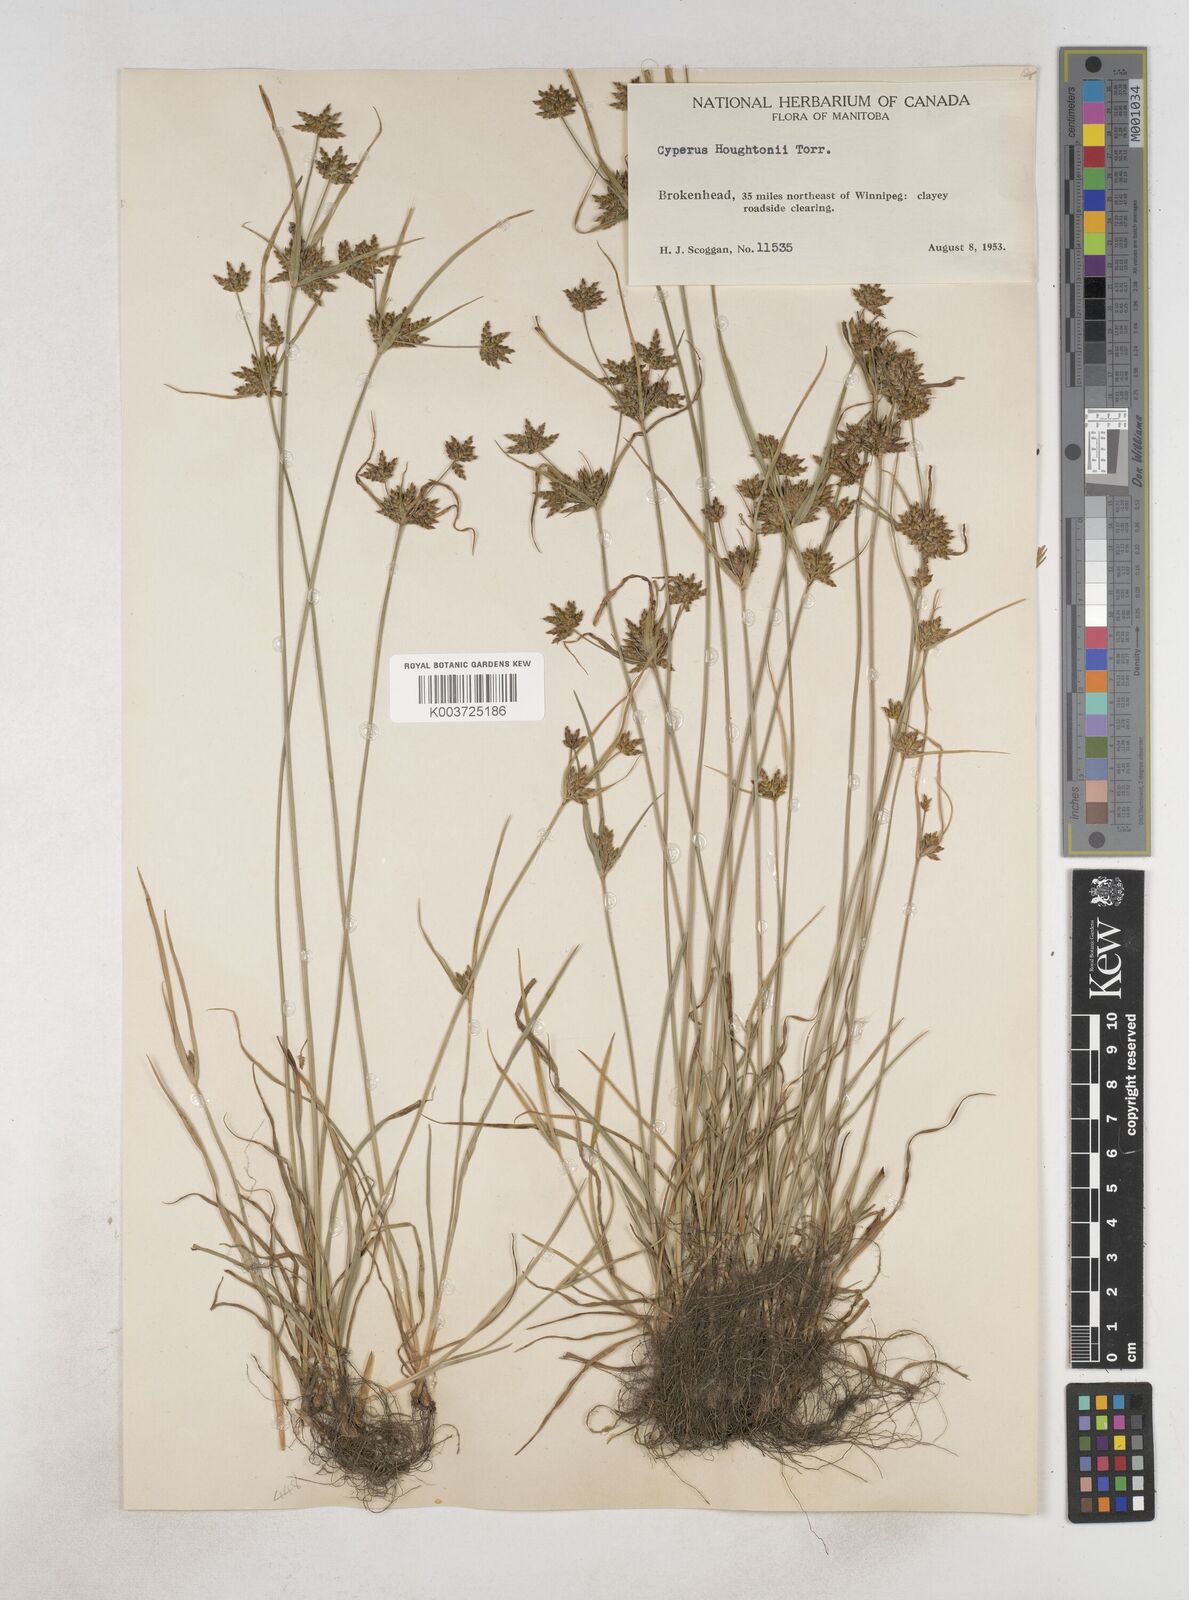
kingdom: Plantae
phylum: Tracheophyta
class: Liliopsida
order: Poales
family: Cyperaceae
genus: Cyperus
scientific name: Cyperus retrorsus
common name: Pinebarren flat sedge
